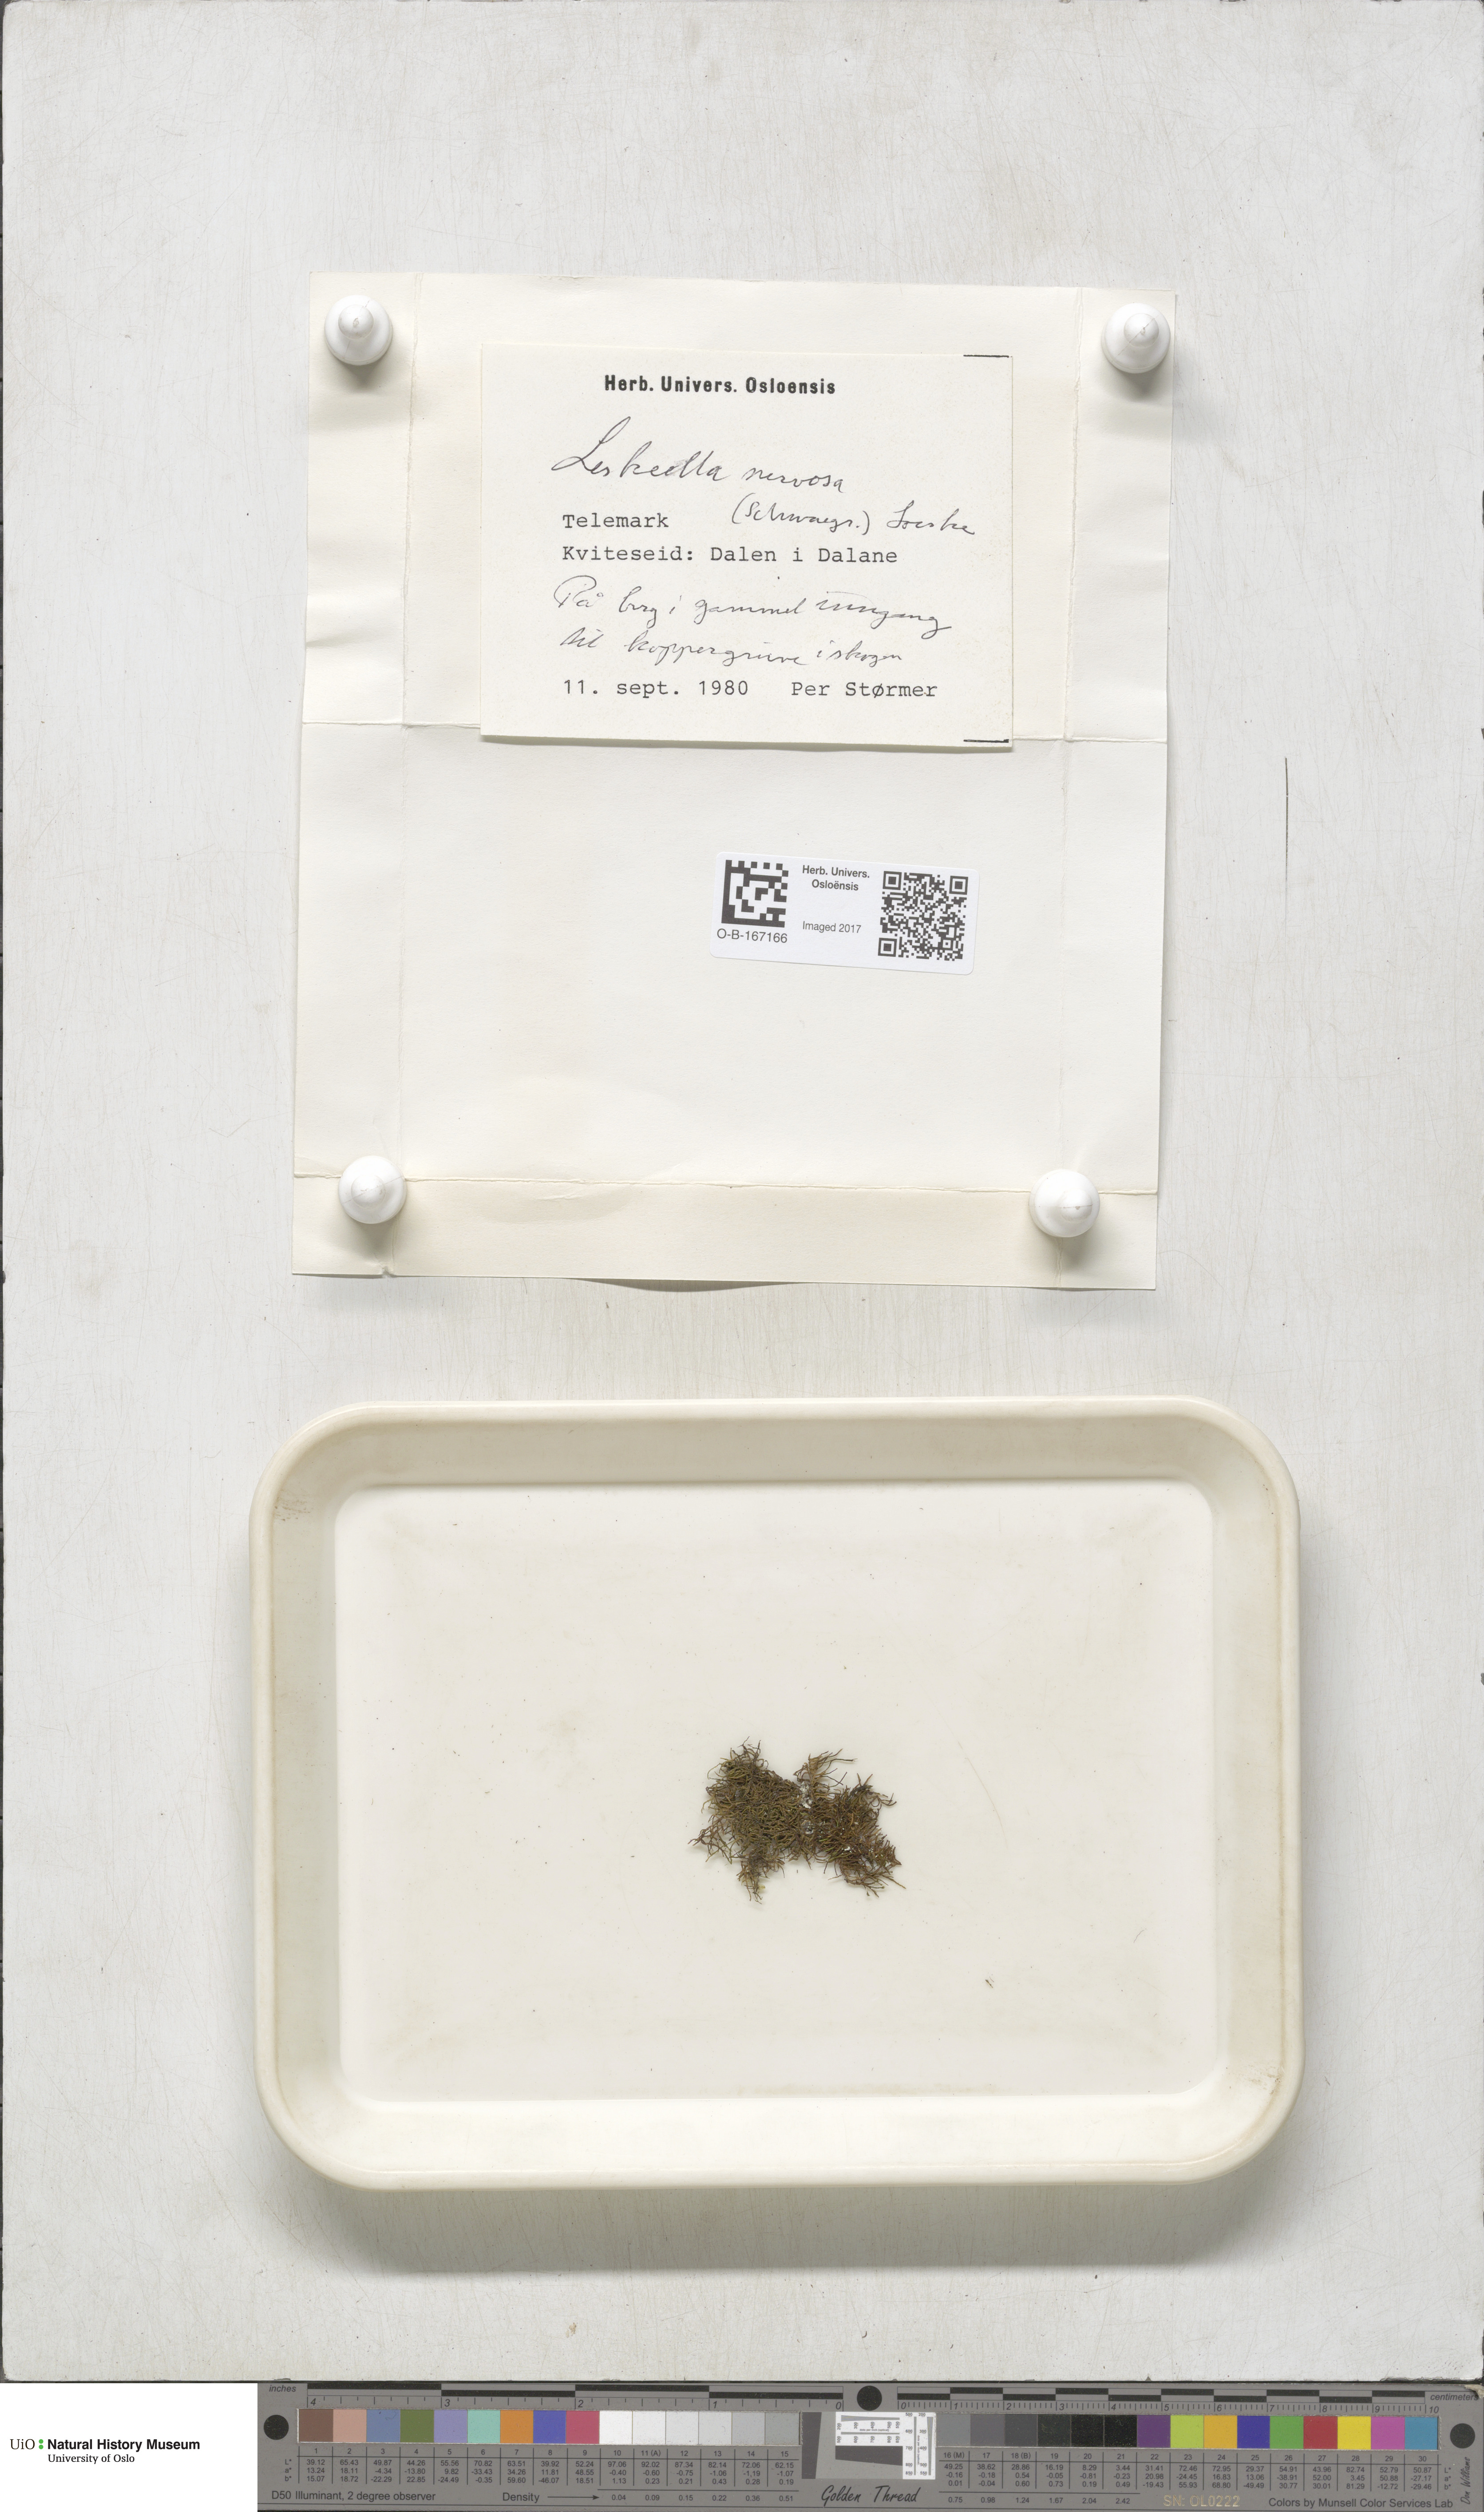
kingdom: Plantae
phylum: Bryophyta
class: Bryopsida
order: Hypnales
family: Pseudoleskeellaceae
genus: Pseudoleskeella
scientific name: Pseudoleskeella nervosa
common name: Nerved leske's moss
